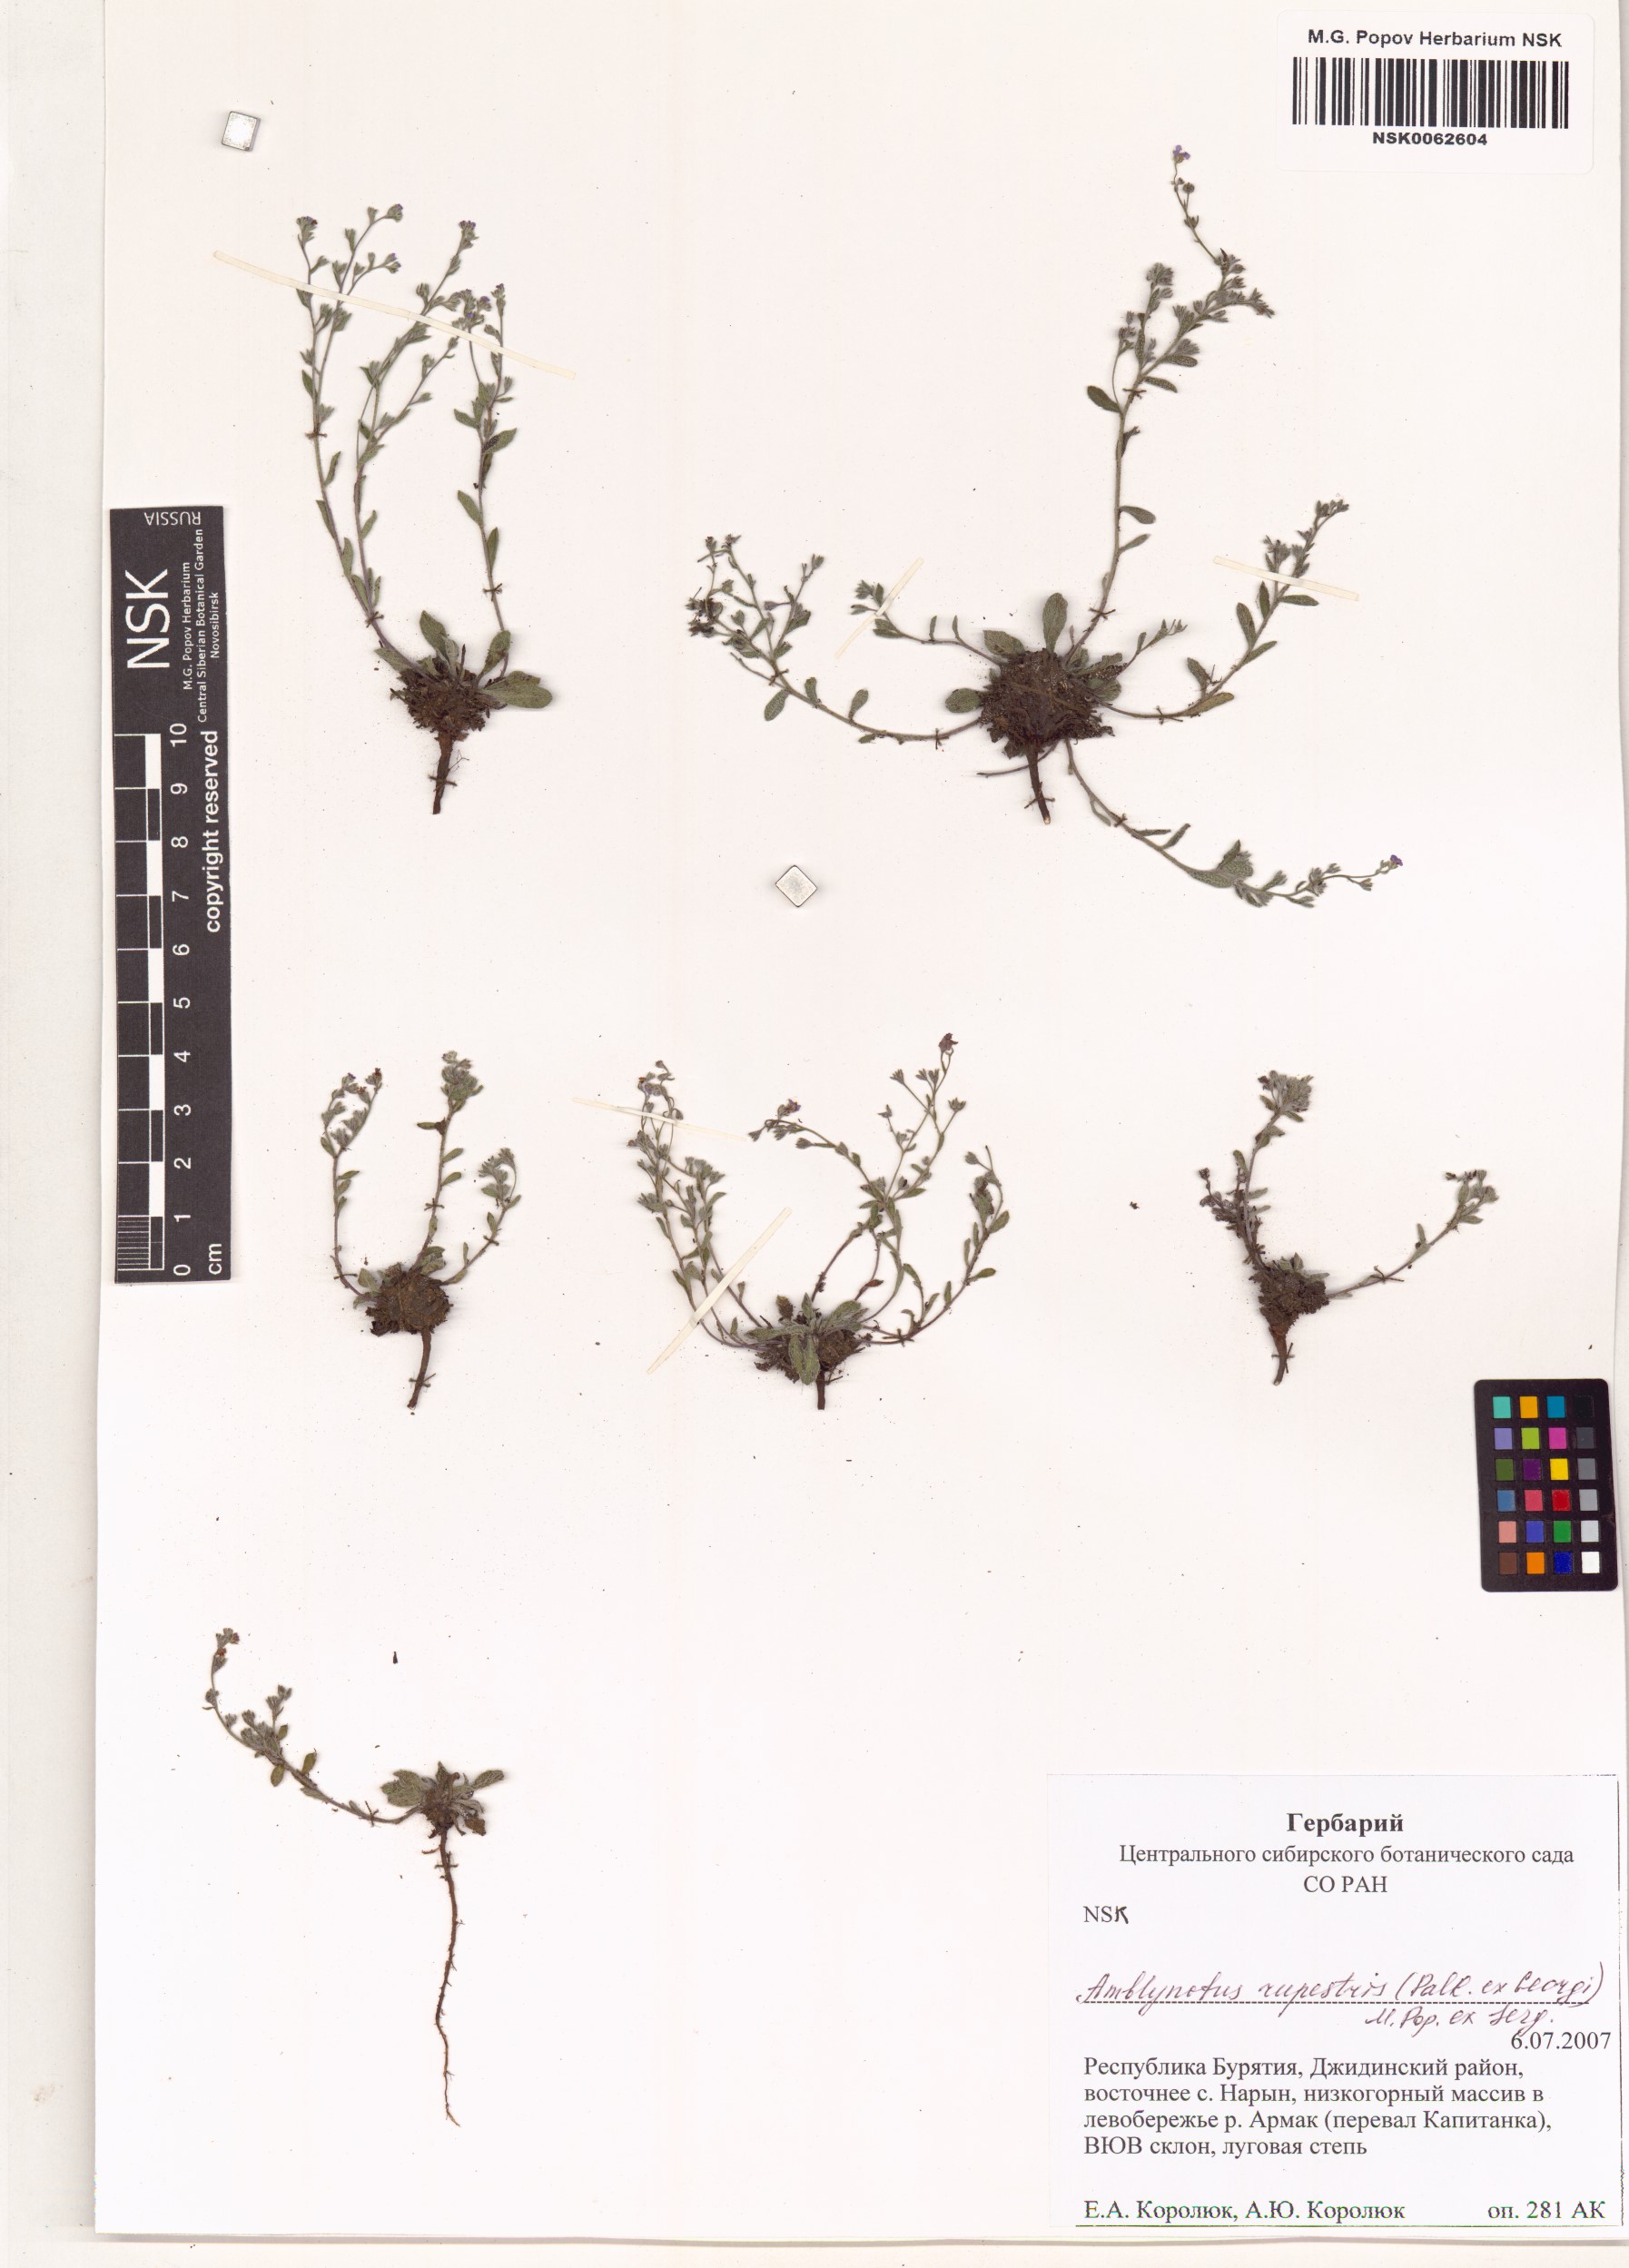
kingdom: Plantae
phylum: Tracheophyta
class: Magnoliopsida
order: Boraginales
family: Boraginaceae
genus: Eritrichium
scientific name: Eritrichium rupestre
